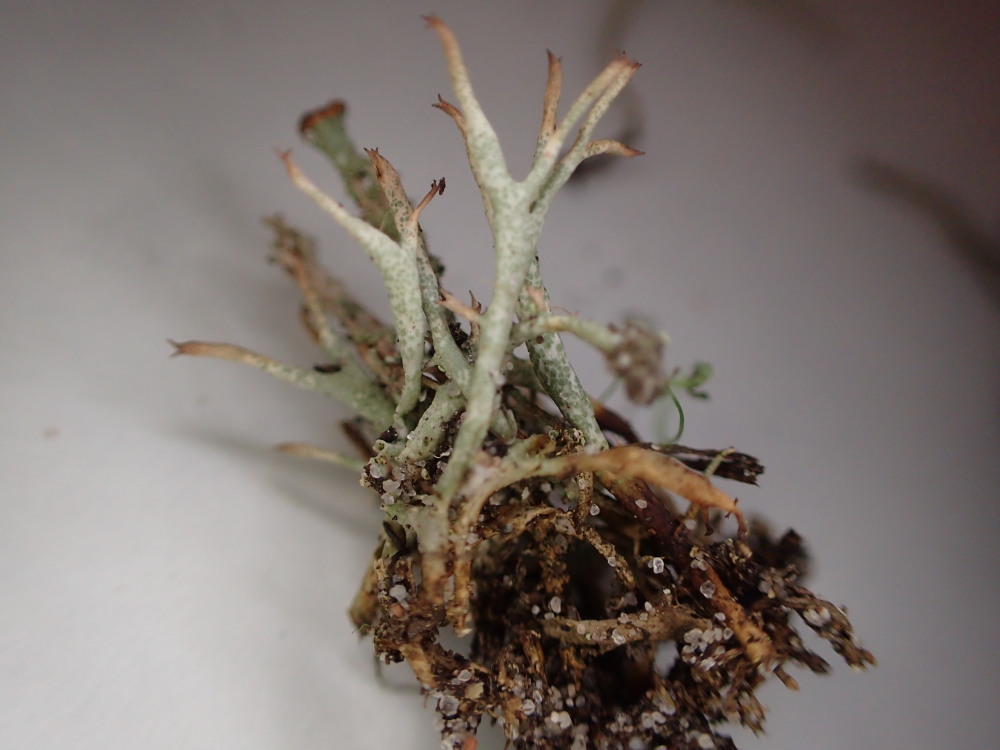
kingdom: Fungi
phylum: Ascomycota
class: Lecanoromycetes
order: Lecanorales
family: Cladoniaceae
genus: Cladonia
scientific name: Cladonia uncialis
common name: pigget bægerlav
